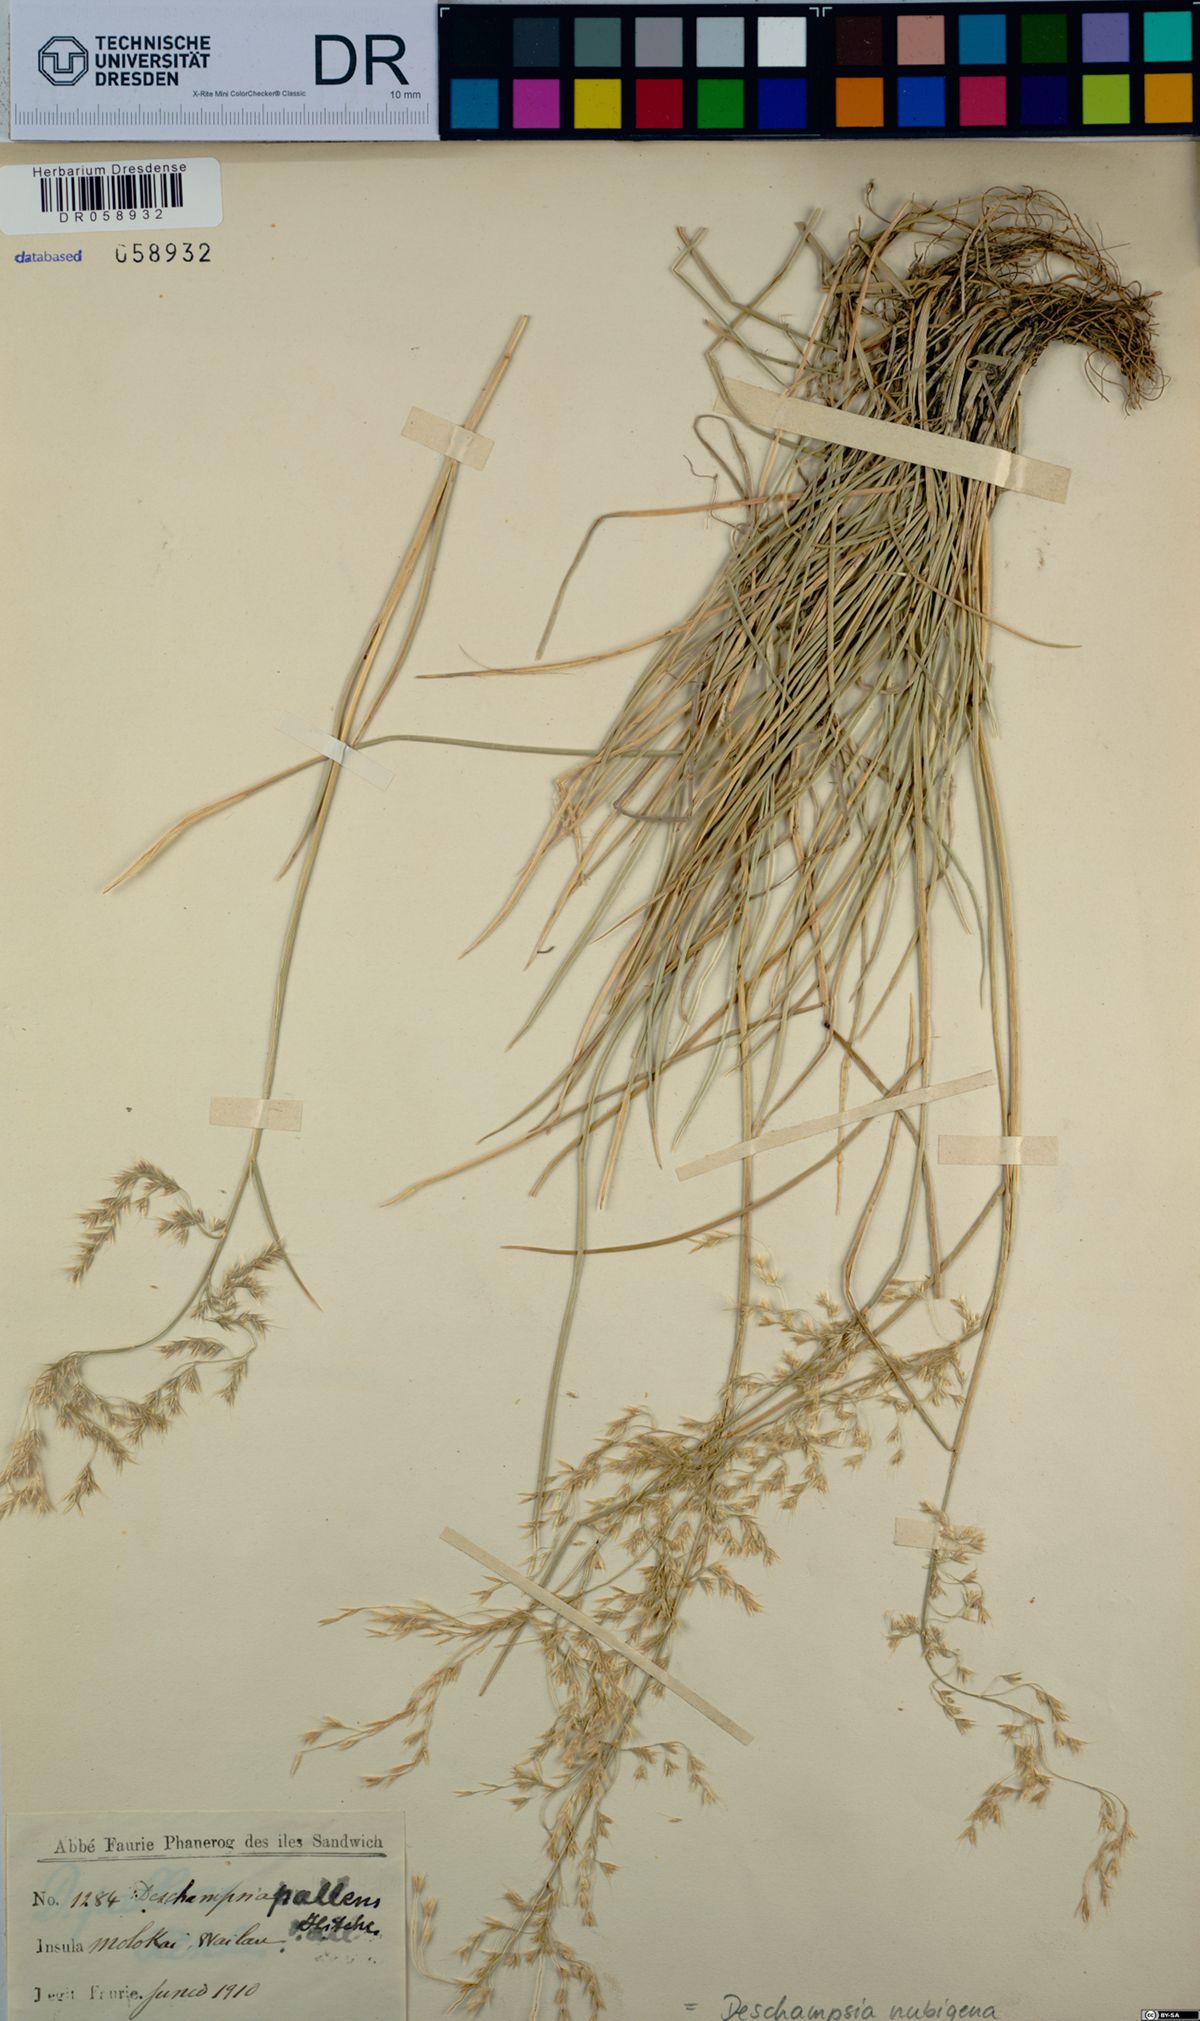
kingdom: Plantae
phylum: Tracheophyta
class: Liliopsida
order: Poales
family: Poaceae
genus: Deschampsia
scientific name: Deschampsia nubigena
